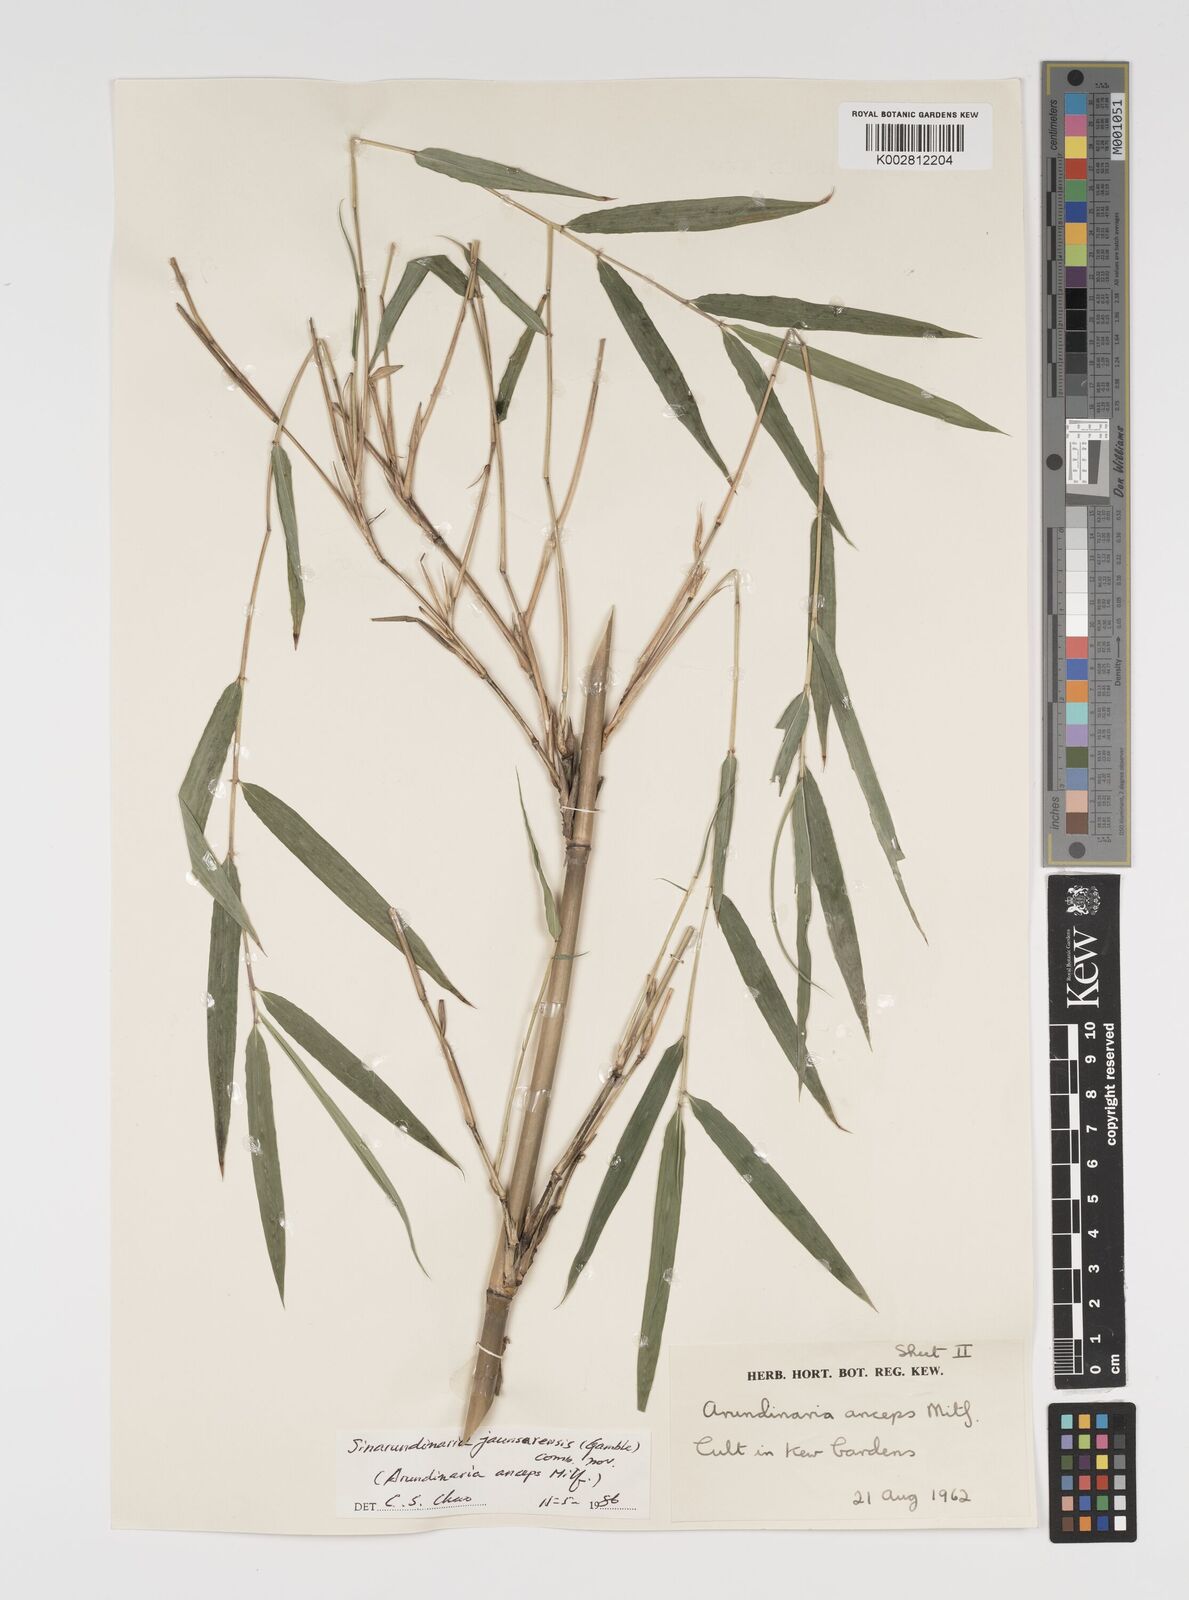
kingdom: Plantae
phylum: Tracheophyta
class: Liliopsida
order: Poales
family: Poaceae
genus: Yushania
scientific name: Yushania anceps
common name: Indian fountain-bamboo
